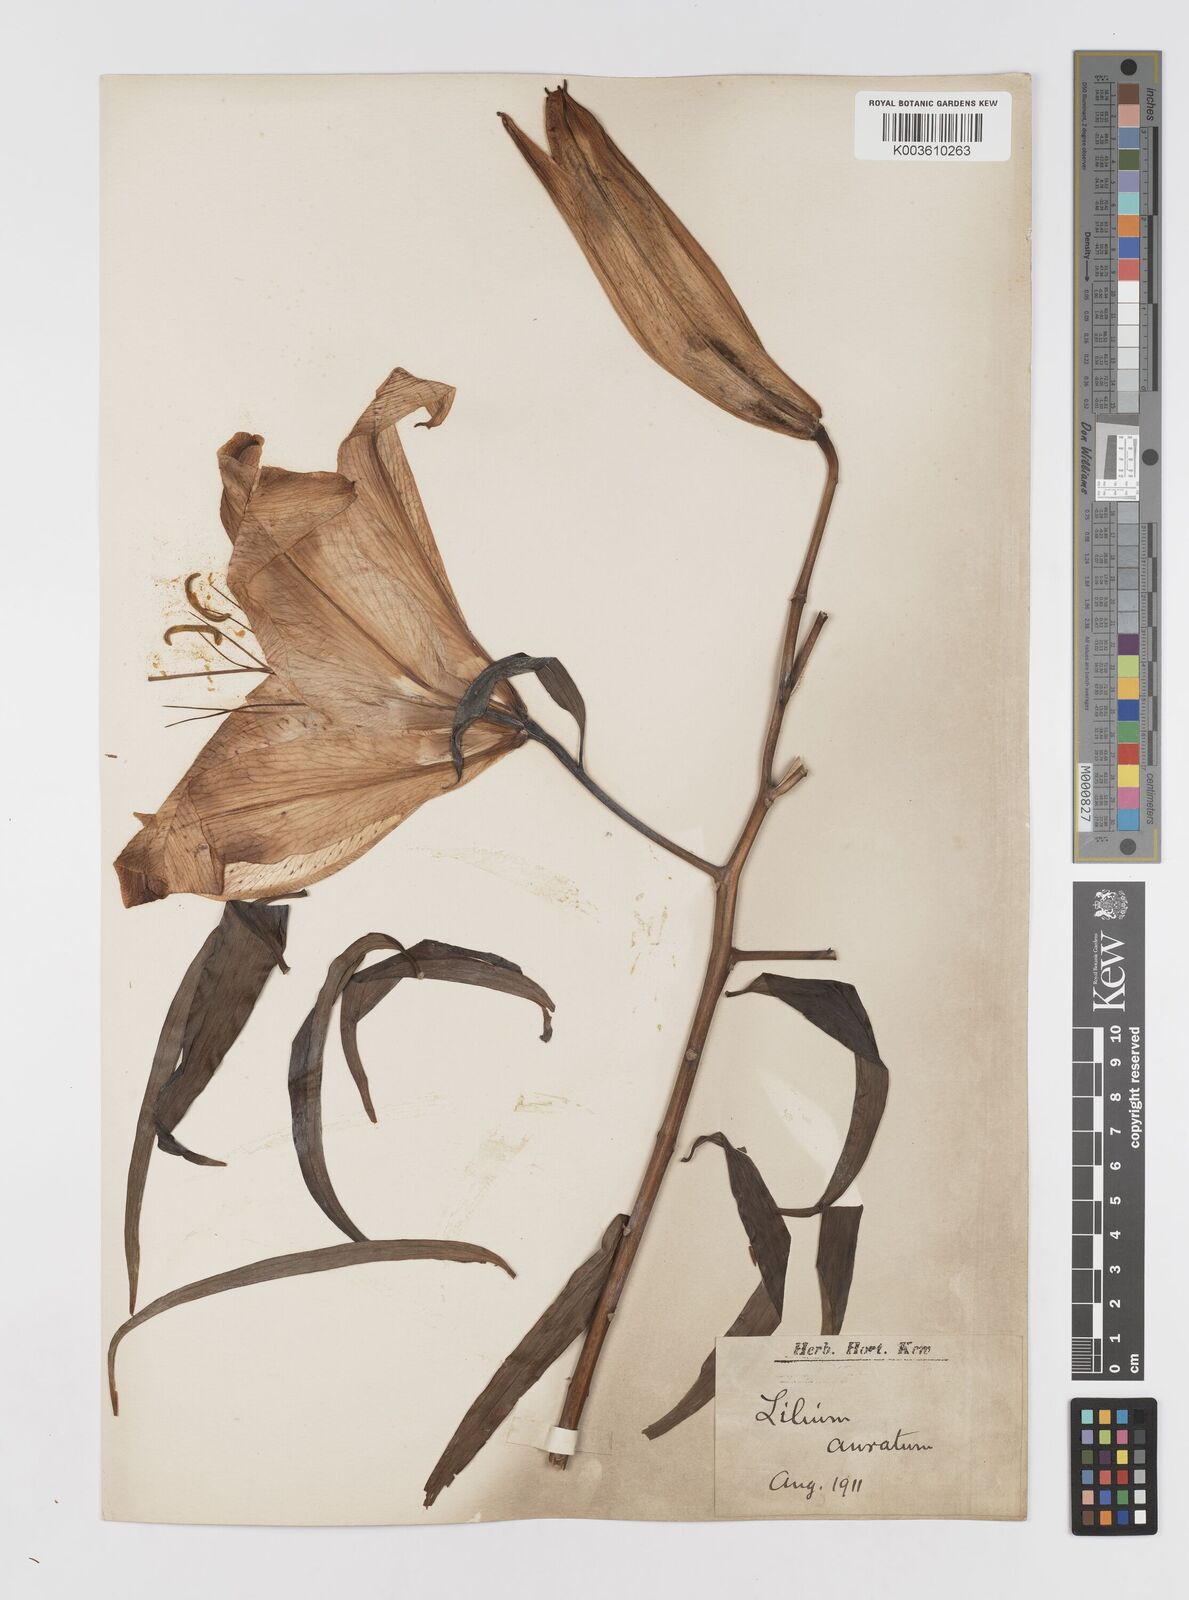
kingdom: Plantae
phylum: Tracheophyta
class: Liliopsida
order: Liliales
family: Liliaceae
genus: Lilium
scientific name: Lilium auratum
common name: Golden-ray lily
